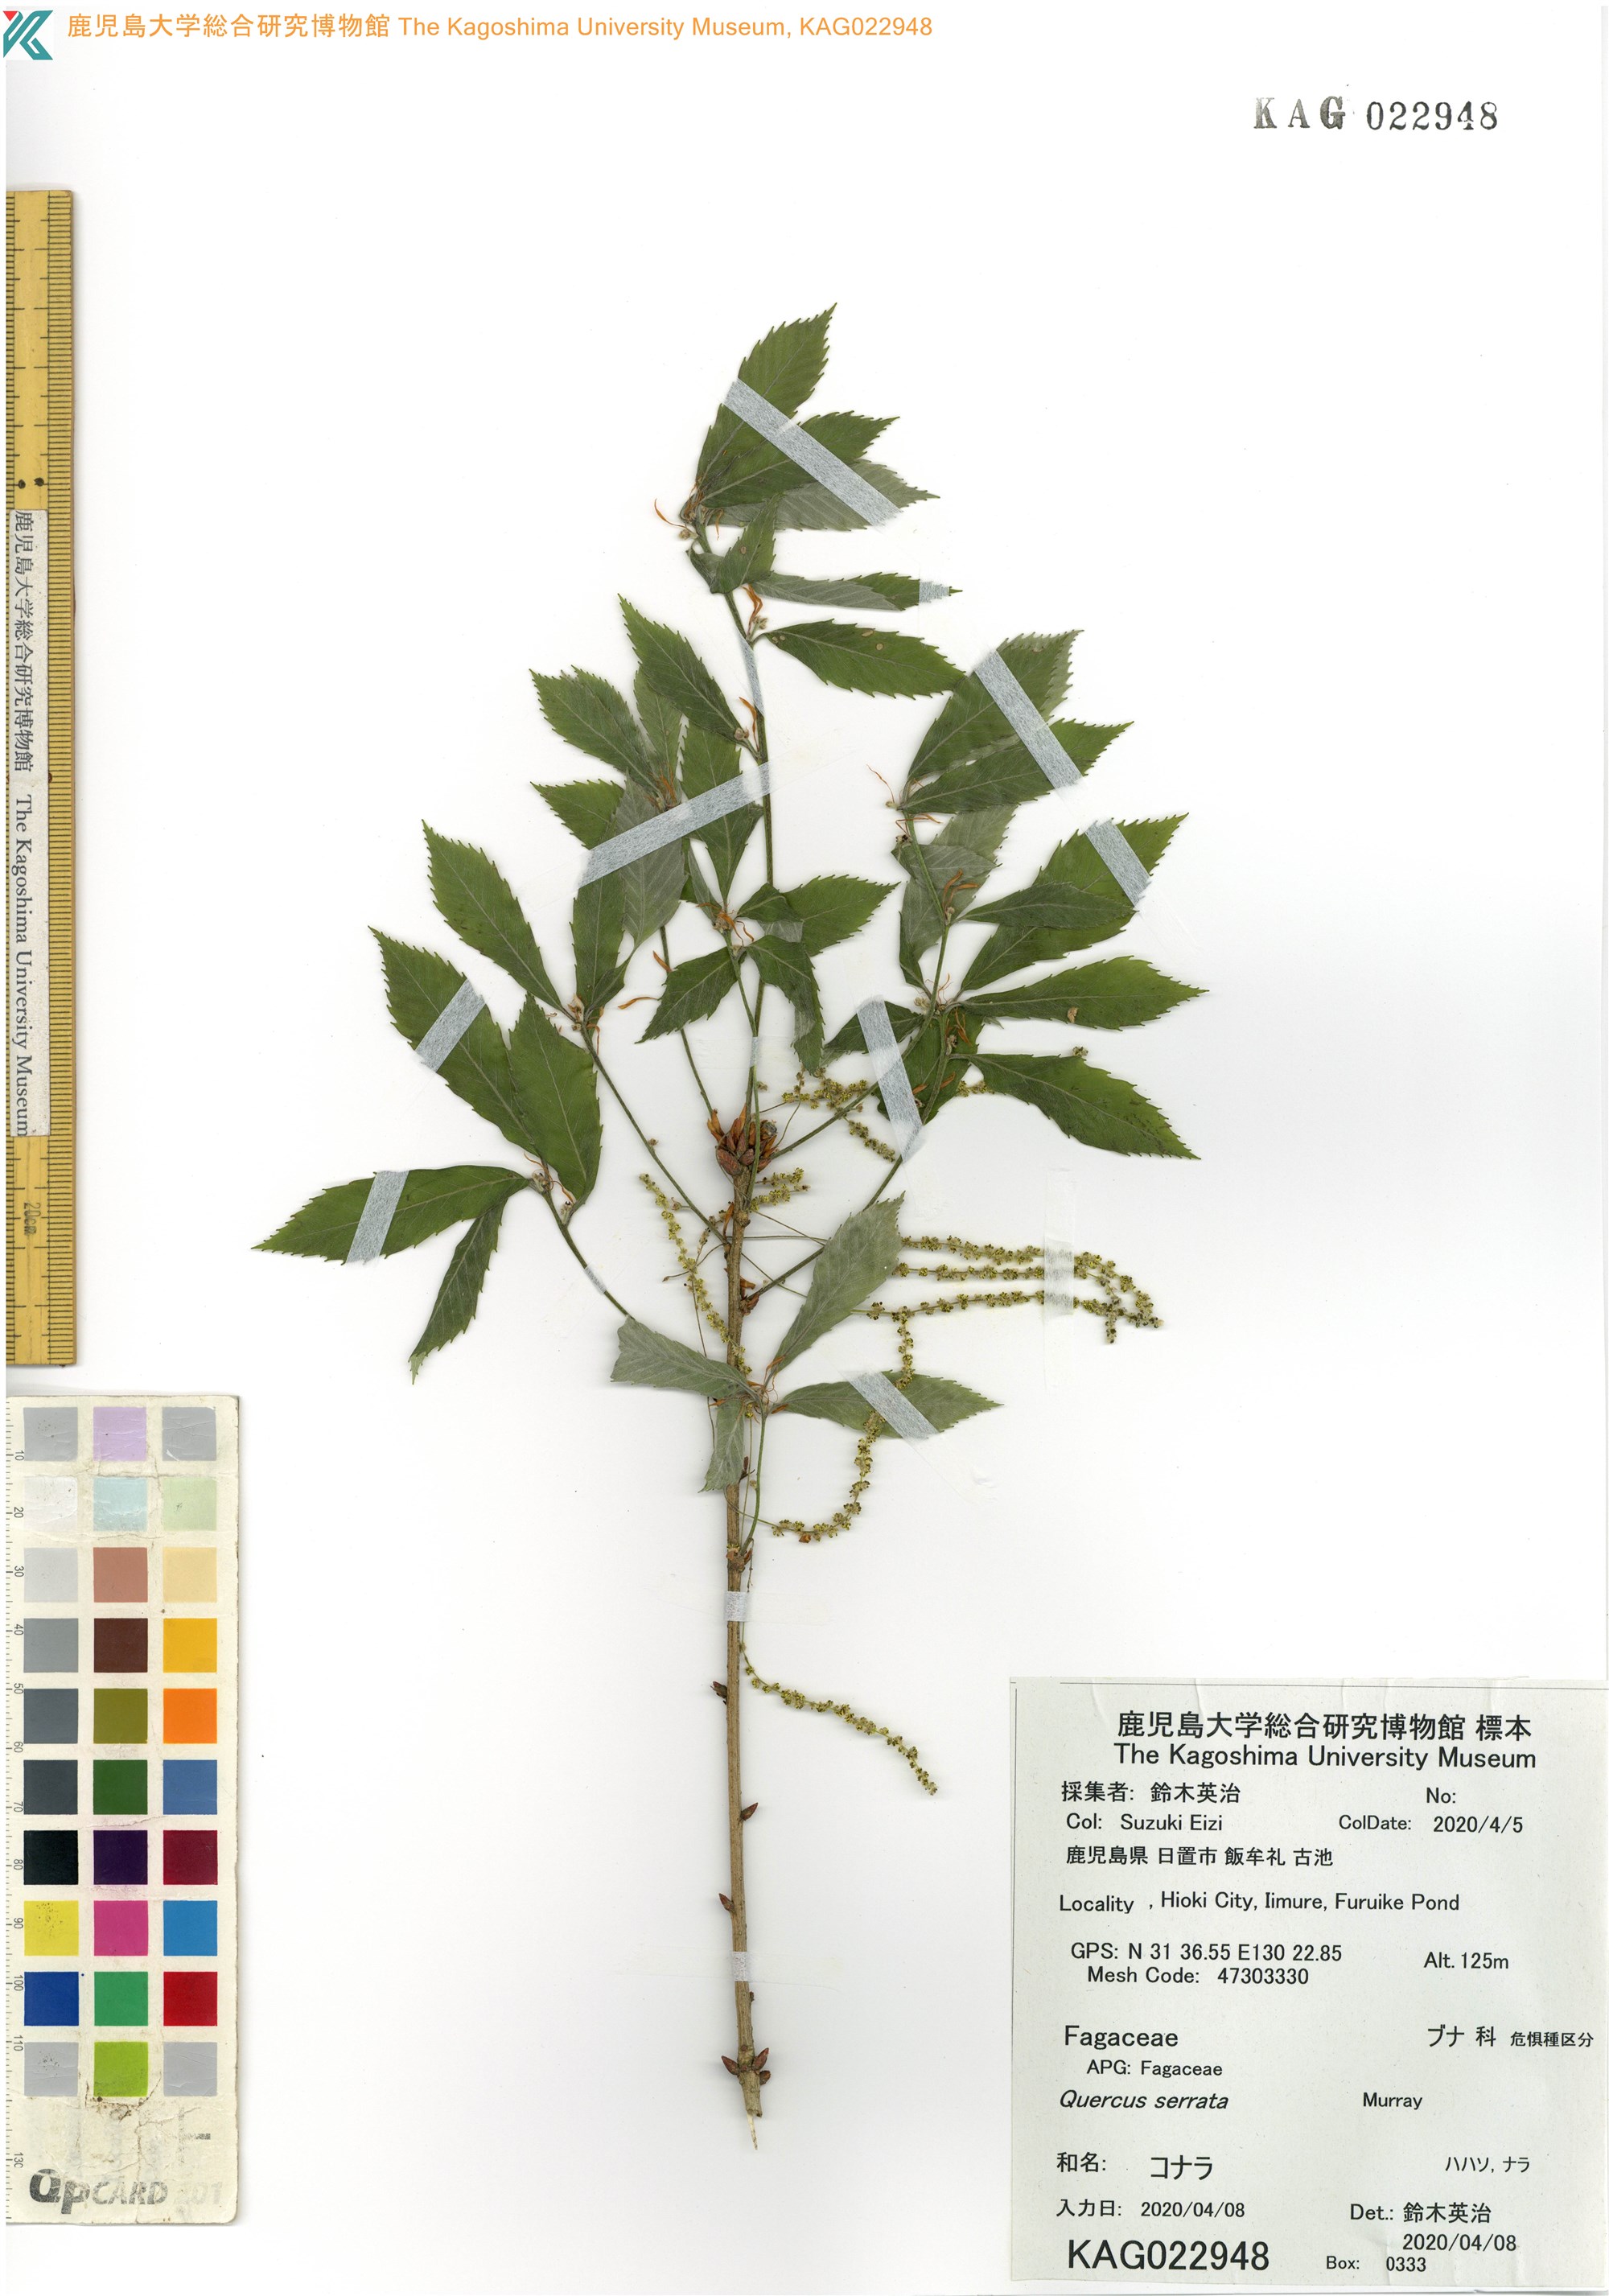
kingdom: Plantae
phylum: Tracheophyta
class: Magnoliopsida
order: Fagales
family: Fagaceae
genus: Quercus
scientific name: Quercus serrata
